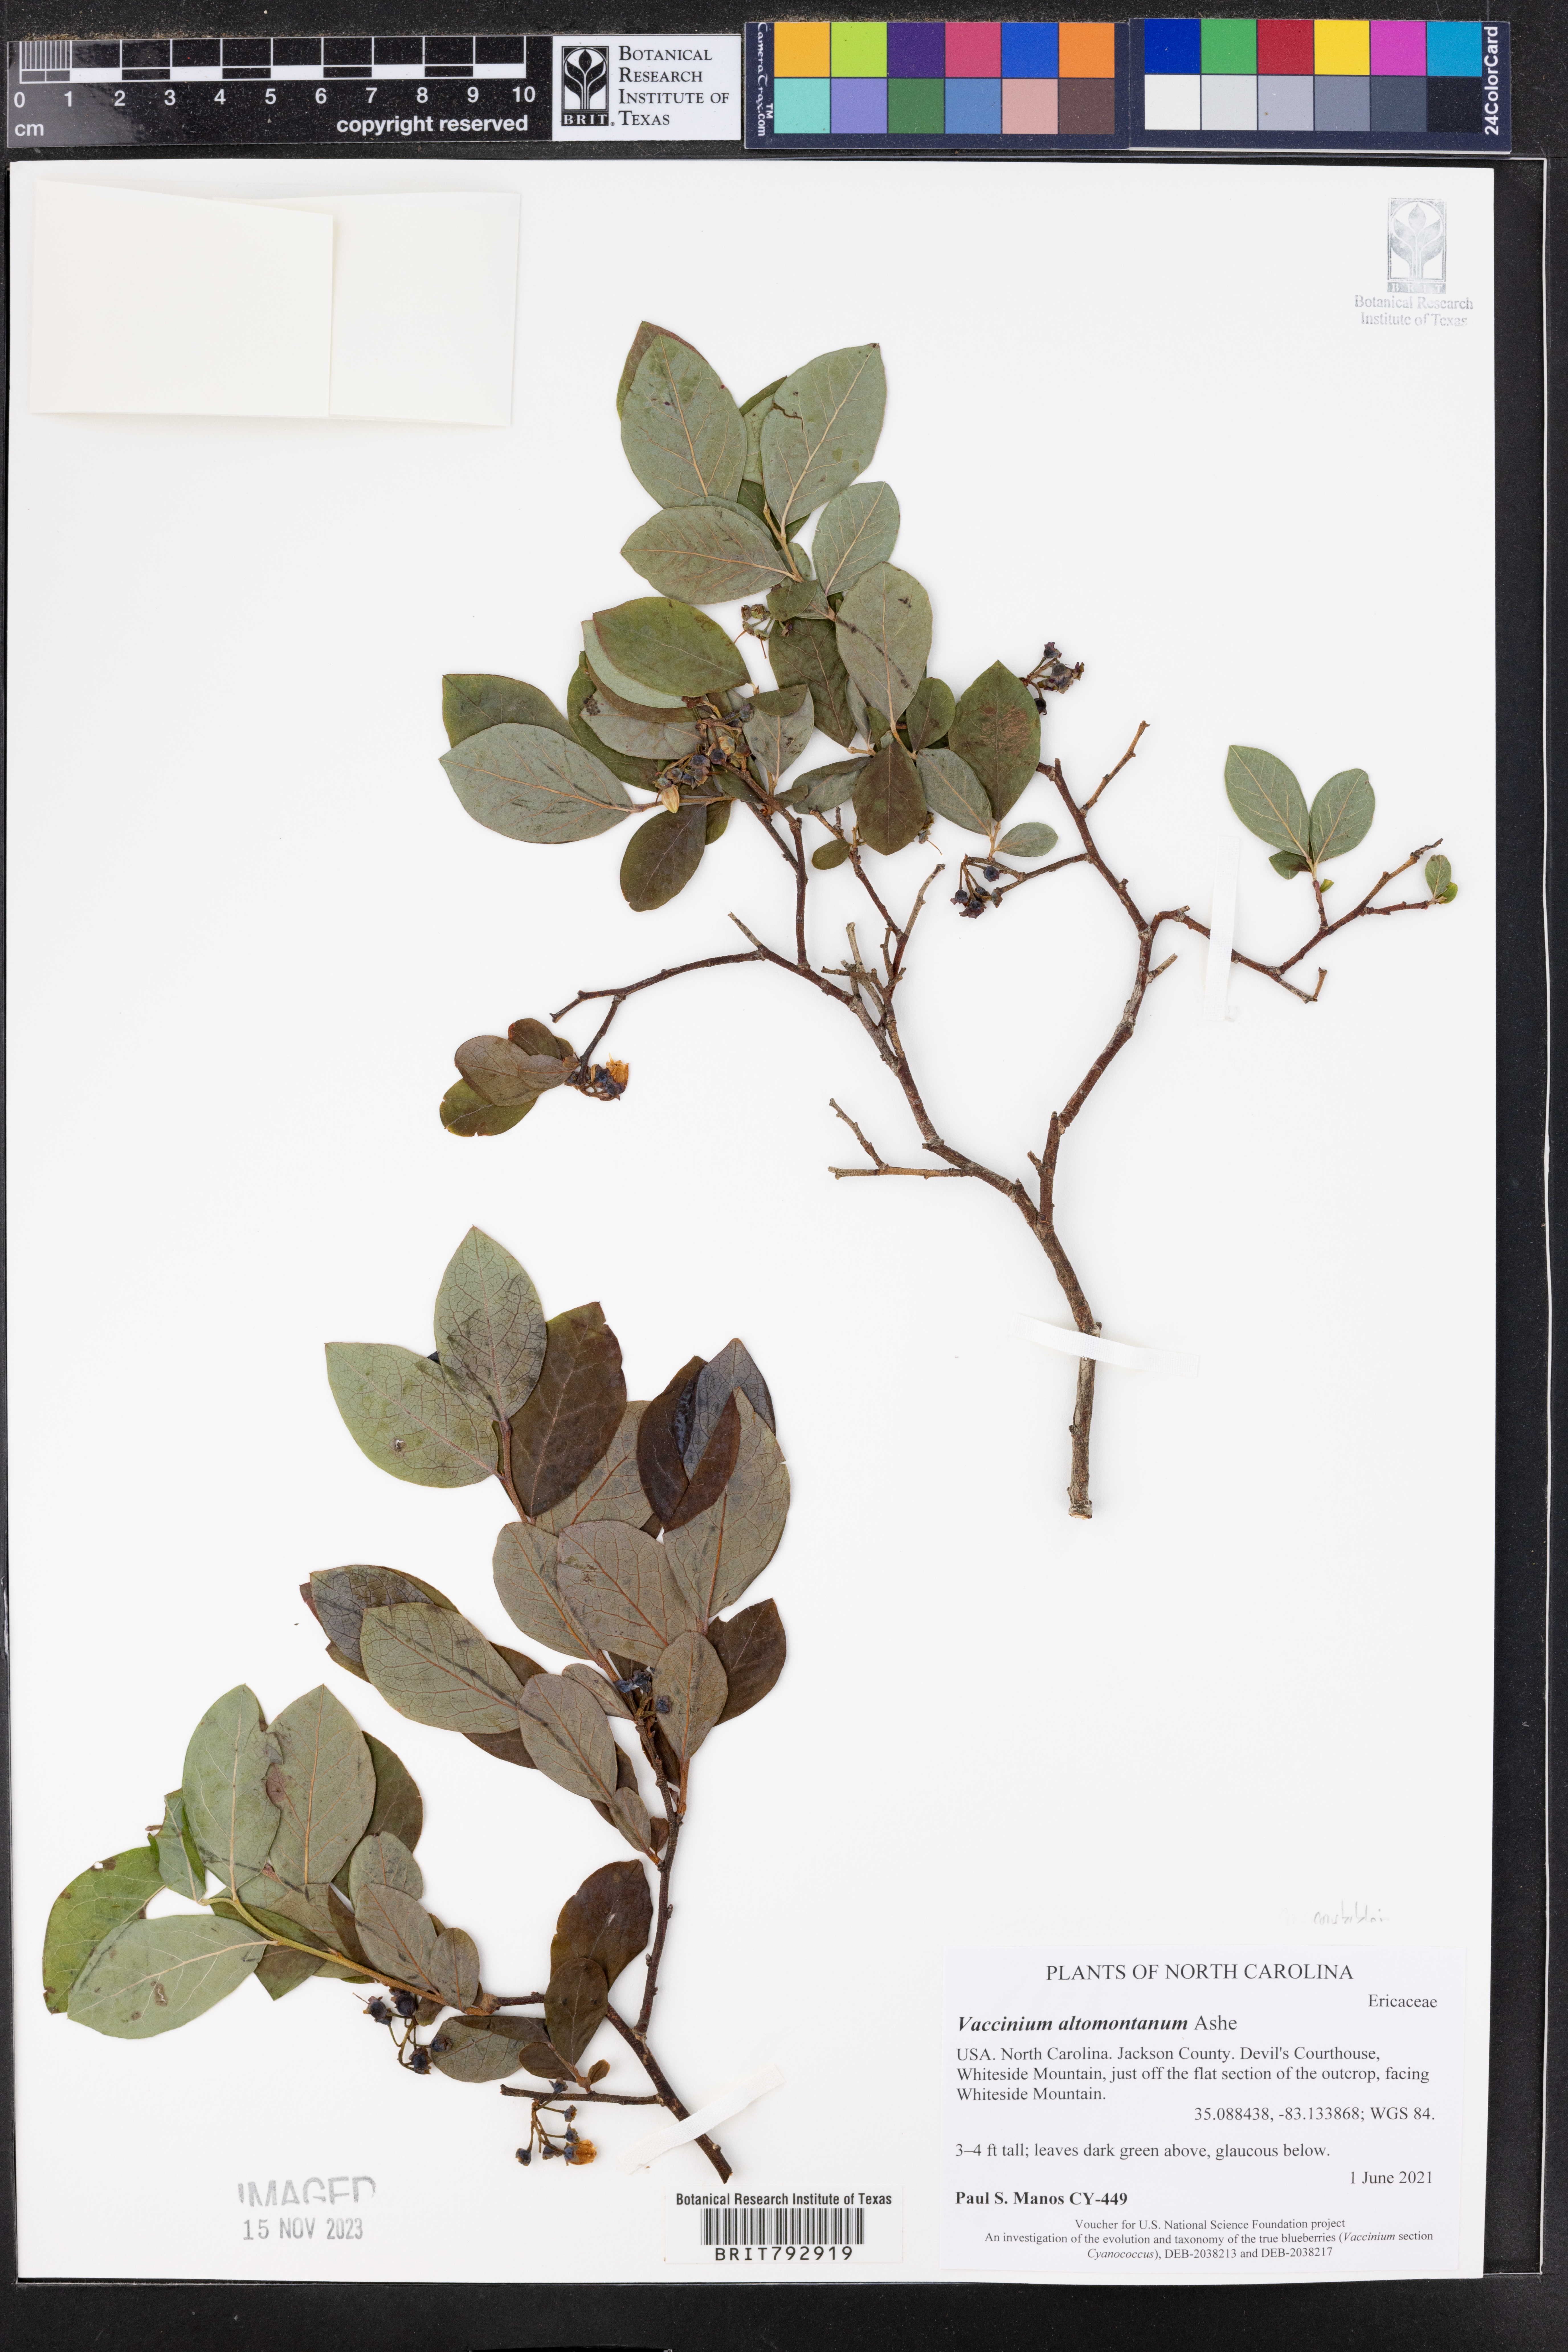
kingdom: Plantae
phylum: Tracheophyta
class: Magnoliopsida
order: Ericales
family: Ericaceae
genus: Vaccinium
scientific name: Vaccinium pallidum
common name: Blue ridge blueberry
